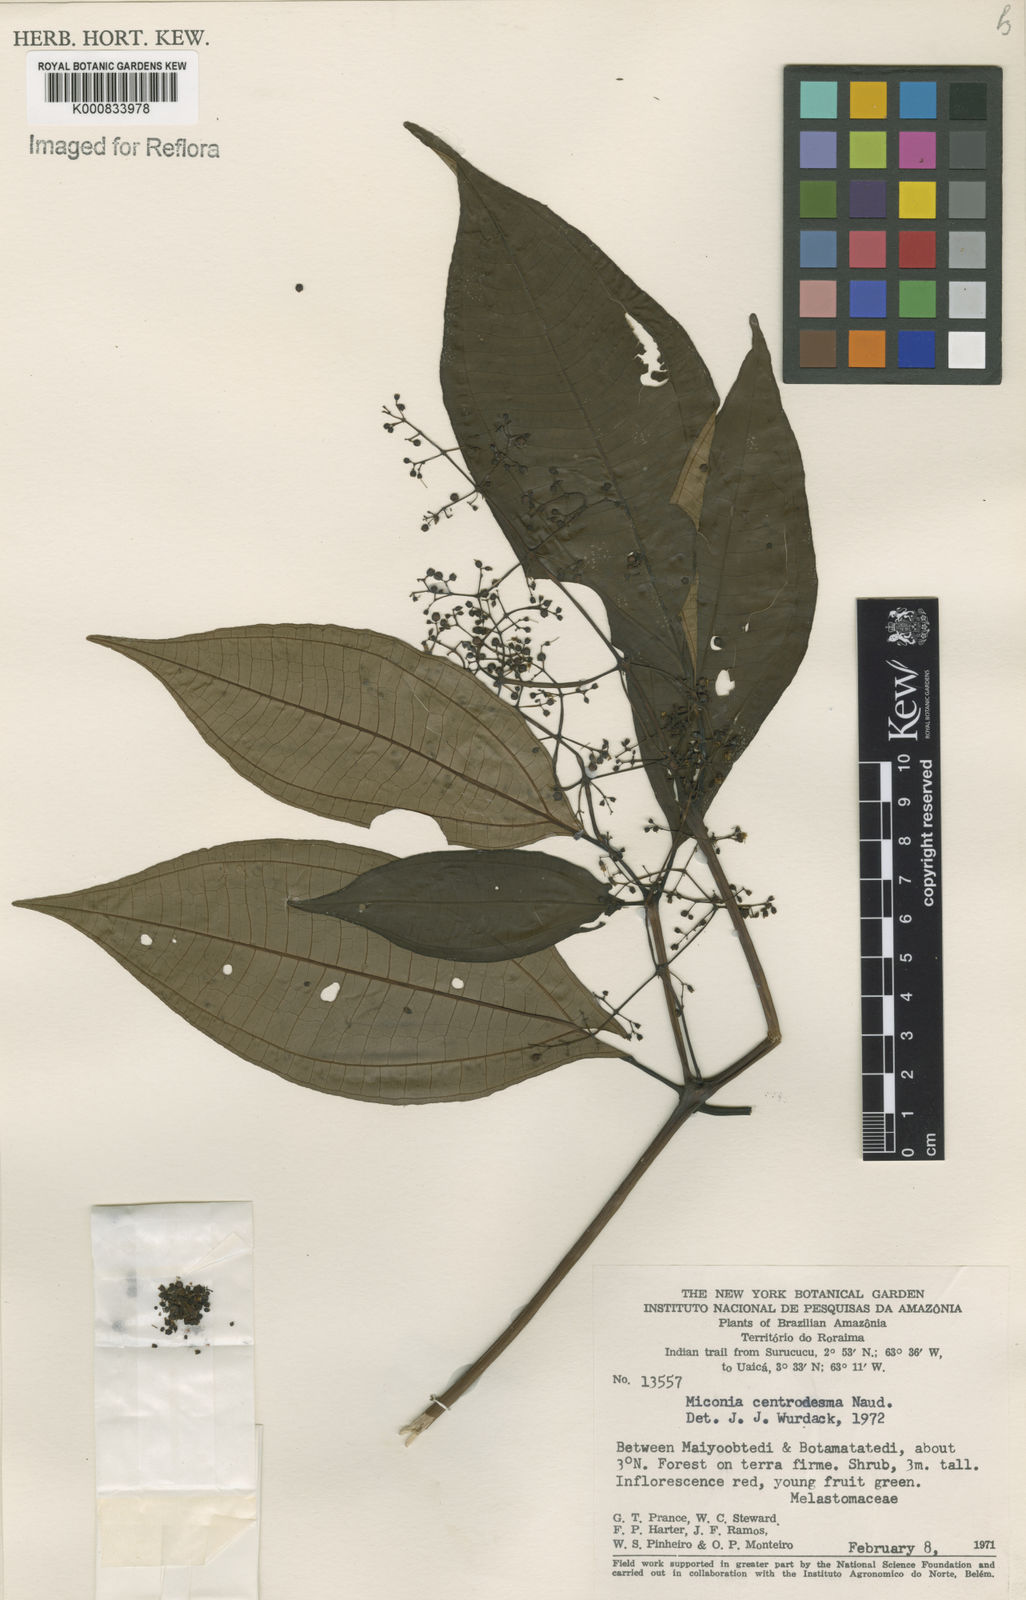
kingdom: Plantae
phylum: Tracheophyta
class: Magnoliopsida
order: Myrtales
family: Melastomataceae
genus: Miconia
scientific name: Miconia centrodesma
